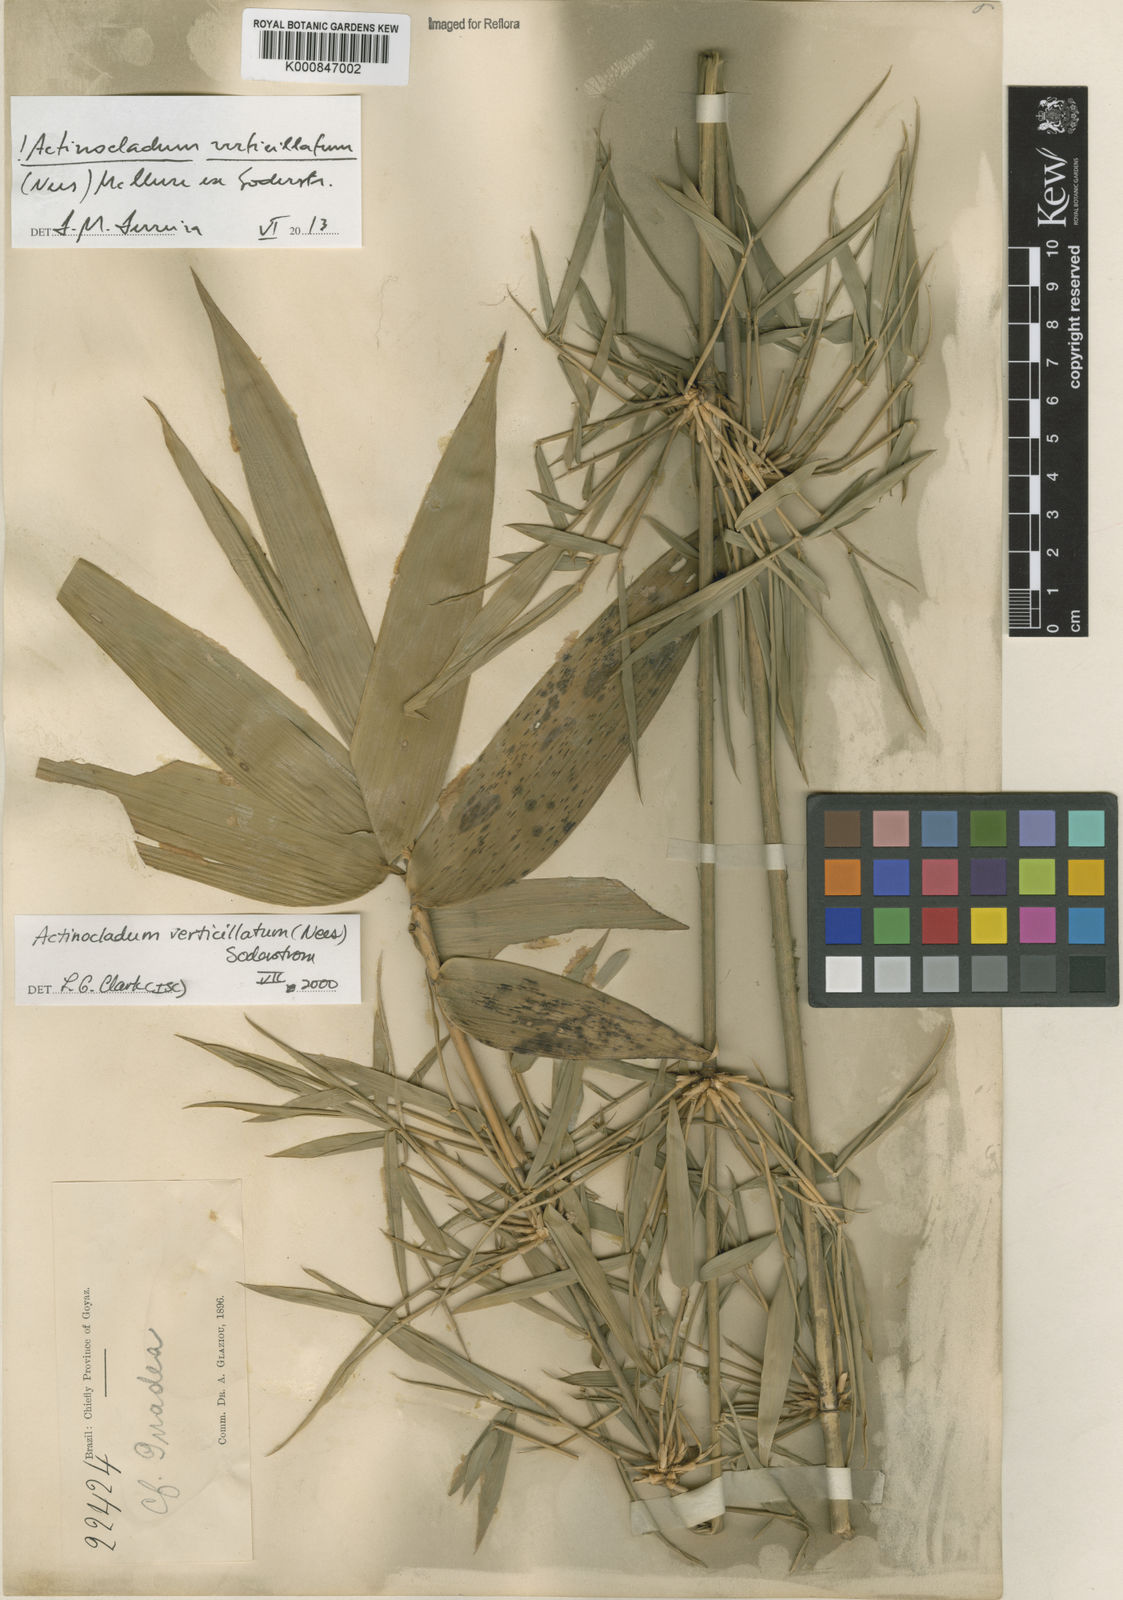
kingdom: Plantae
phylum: Tracheophyta
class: Liliopsida
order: Poales
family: Poaceae
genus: Actinocladum
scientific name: Actinocladum verticillatum
